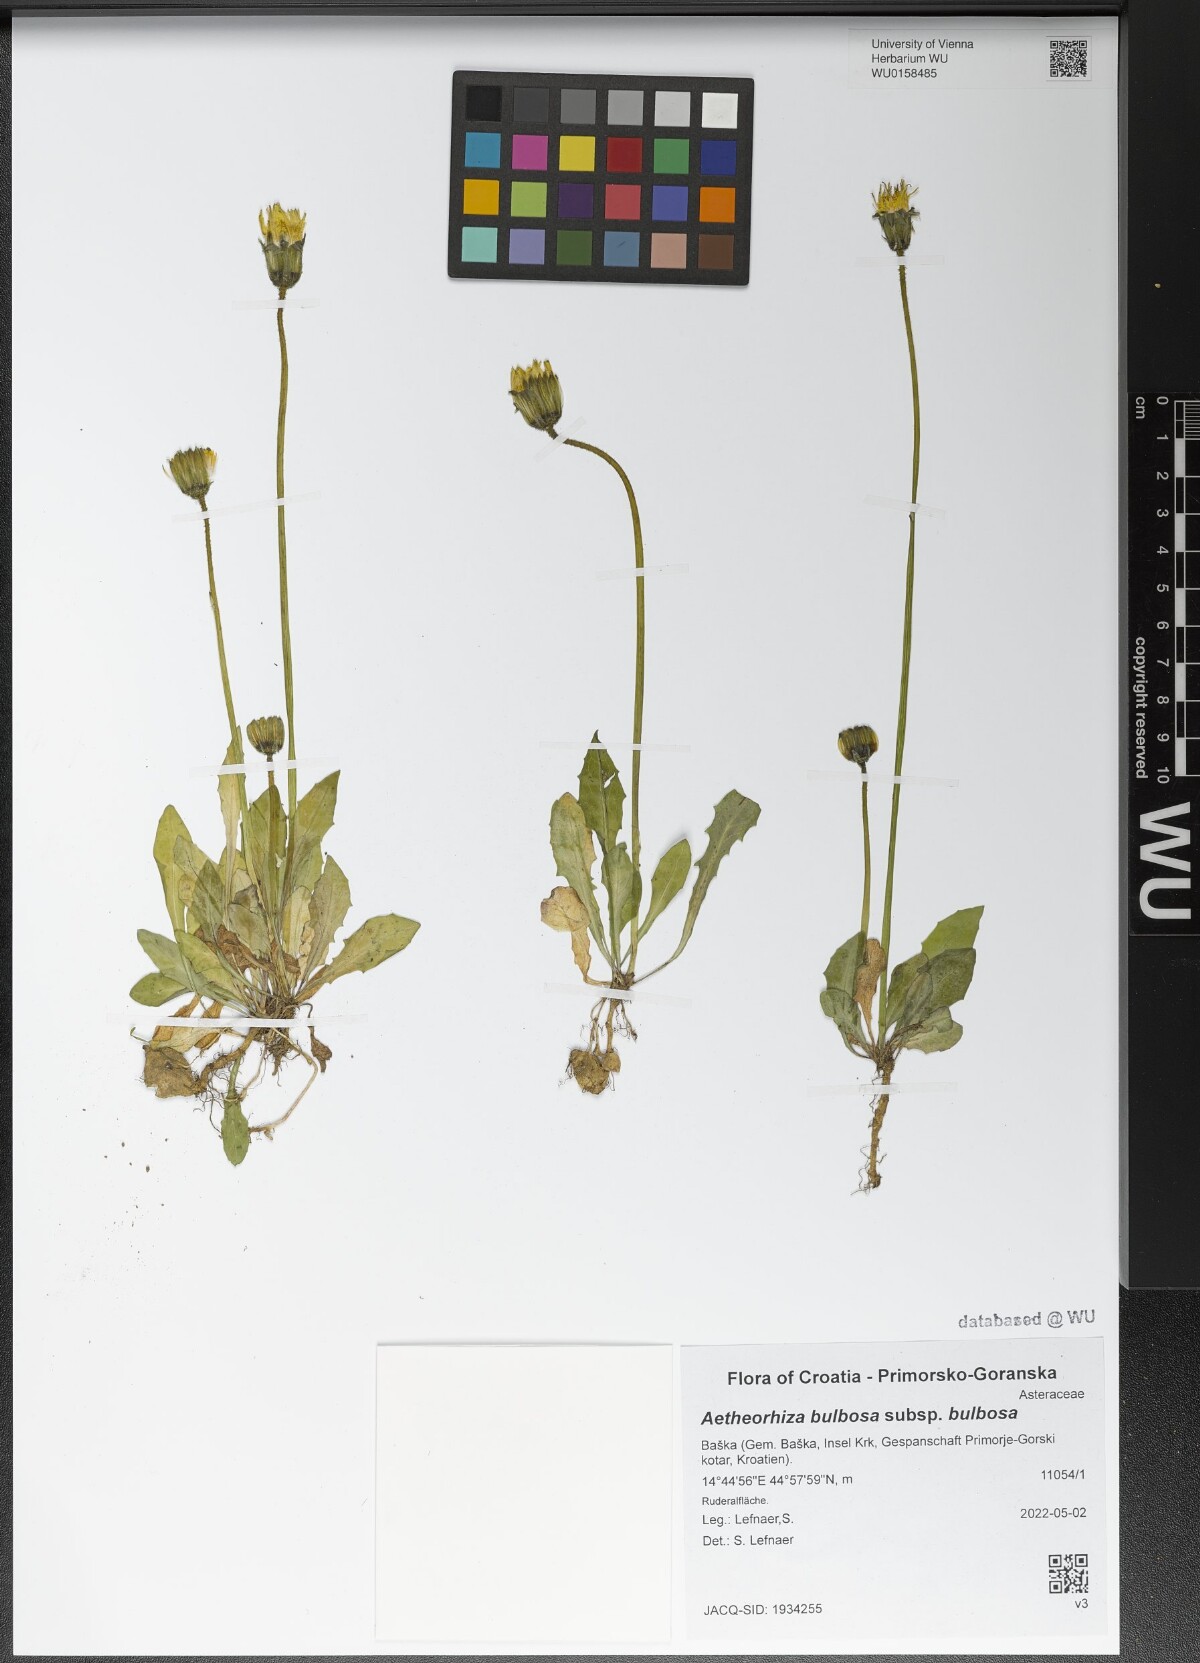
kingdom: Plantae
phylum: Tracheophyta
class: Magnoliopsida
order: Asterales
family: Asteraceae
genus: Aetheorhiza
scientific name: Aetheorhiza bulbosa
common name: Tuberous hawk's-beard
